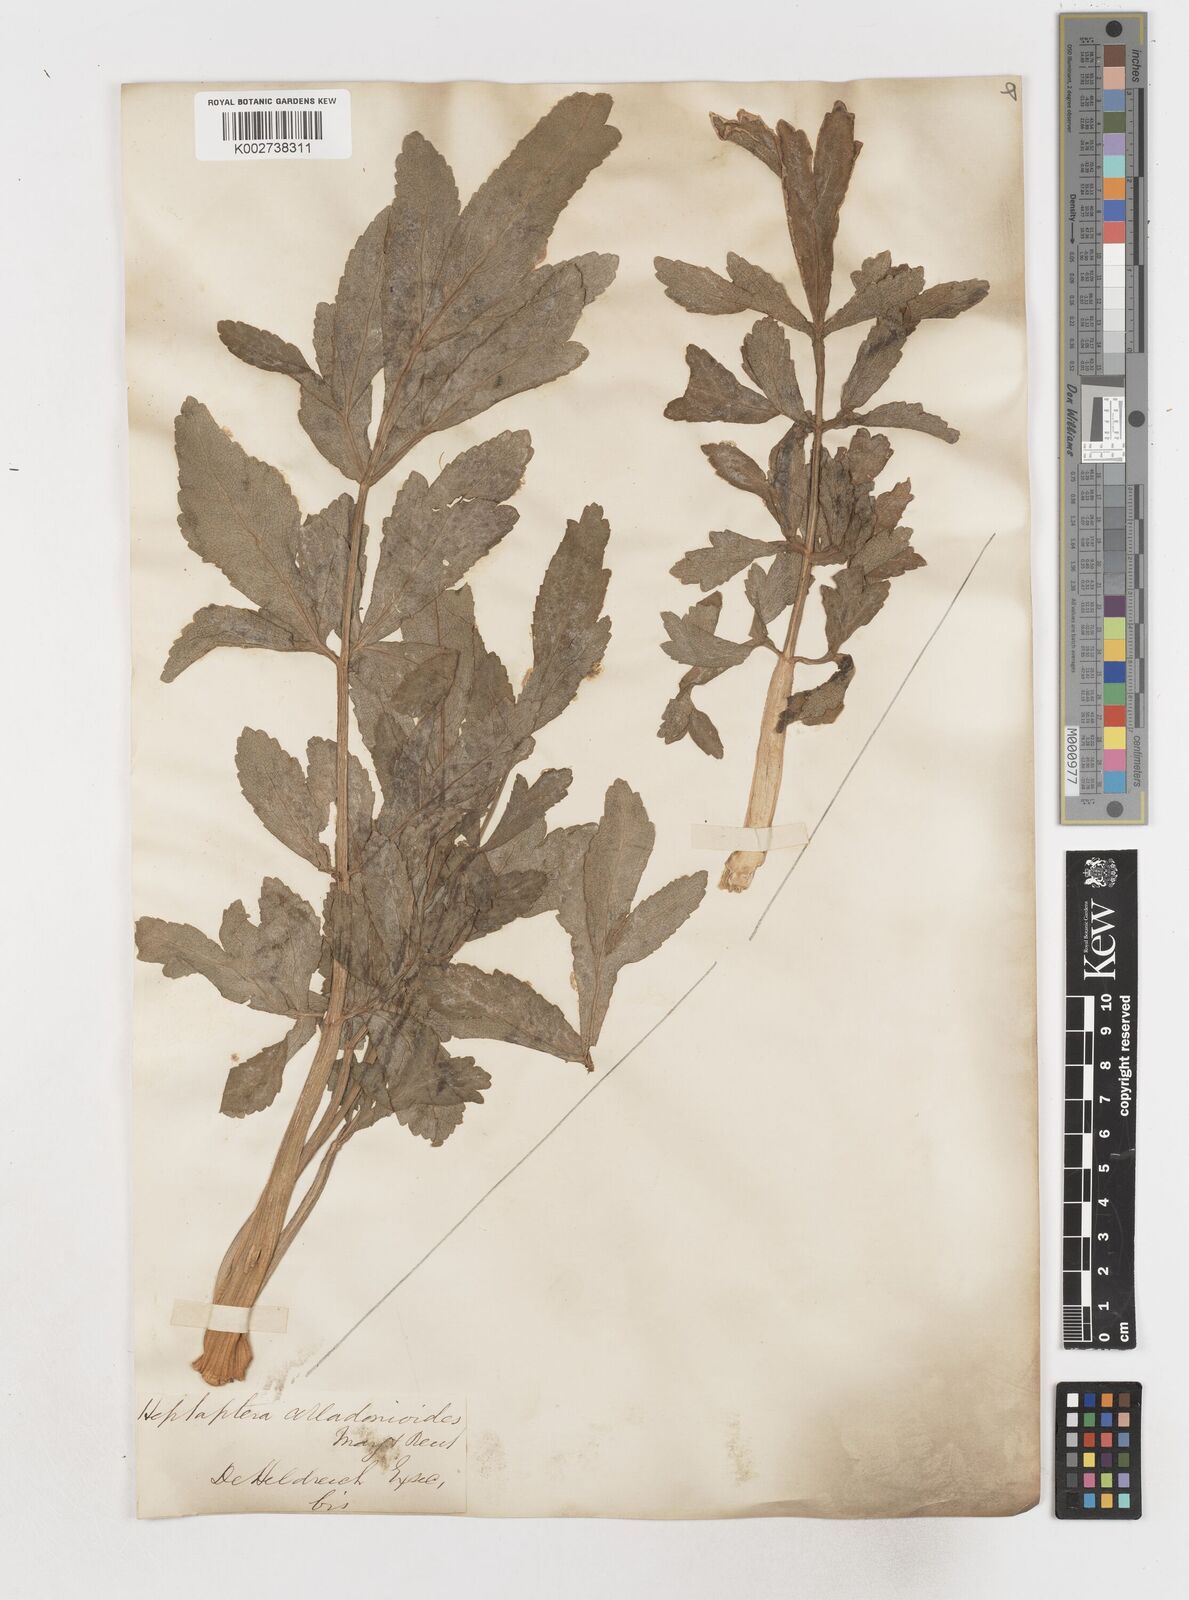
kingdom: Plantae
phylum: Tracheophyta
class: Magnoliopsida
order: Apiales
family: Apiaceae
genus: Heptaptera
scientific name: Heptaptera colladonioides
